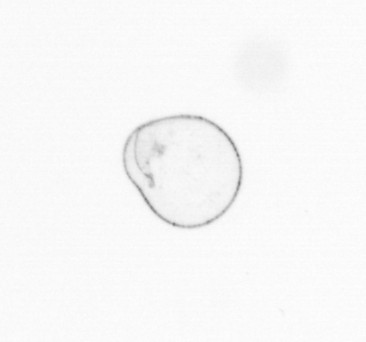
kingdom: Chromista
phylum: Myzozoa
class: Dinophyceae
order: Noctilucales
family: Noctilucaceae
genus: Noctiluca
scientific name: Noctiluca scintillans
